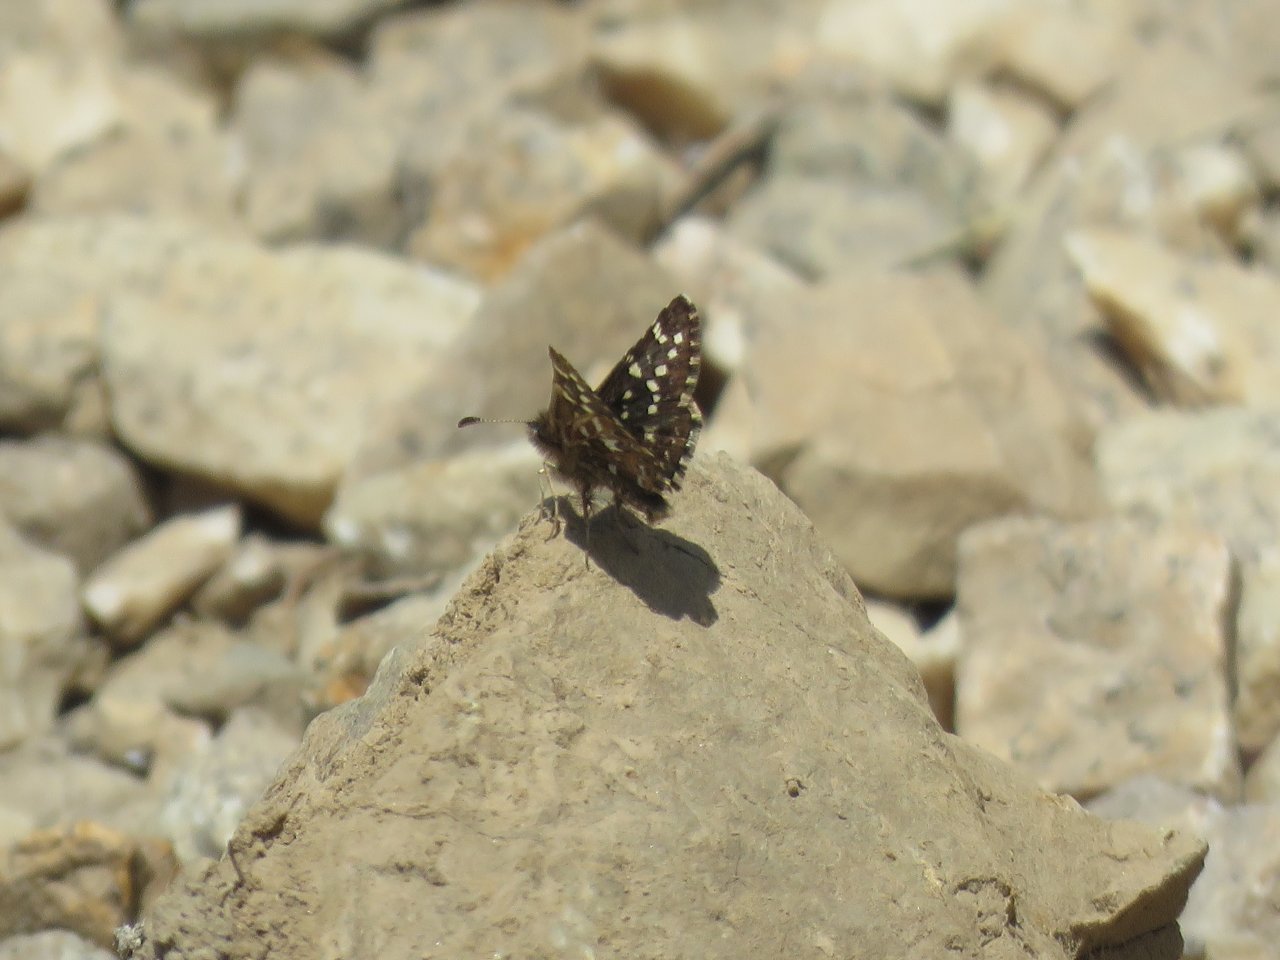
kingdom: Animalia
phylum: Arthropoda
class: Insecta
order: Lepidoptera
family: Hesperiidae
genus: Pyrgus
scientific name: Pyrgus ruralis
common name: Two-banded Checkered-Skipper
